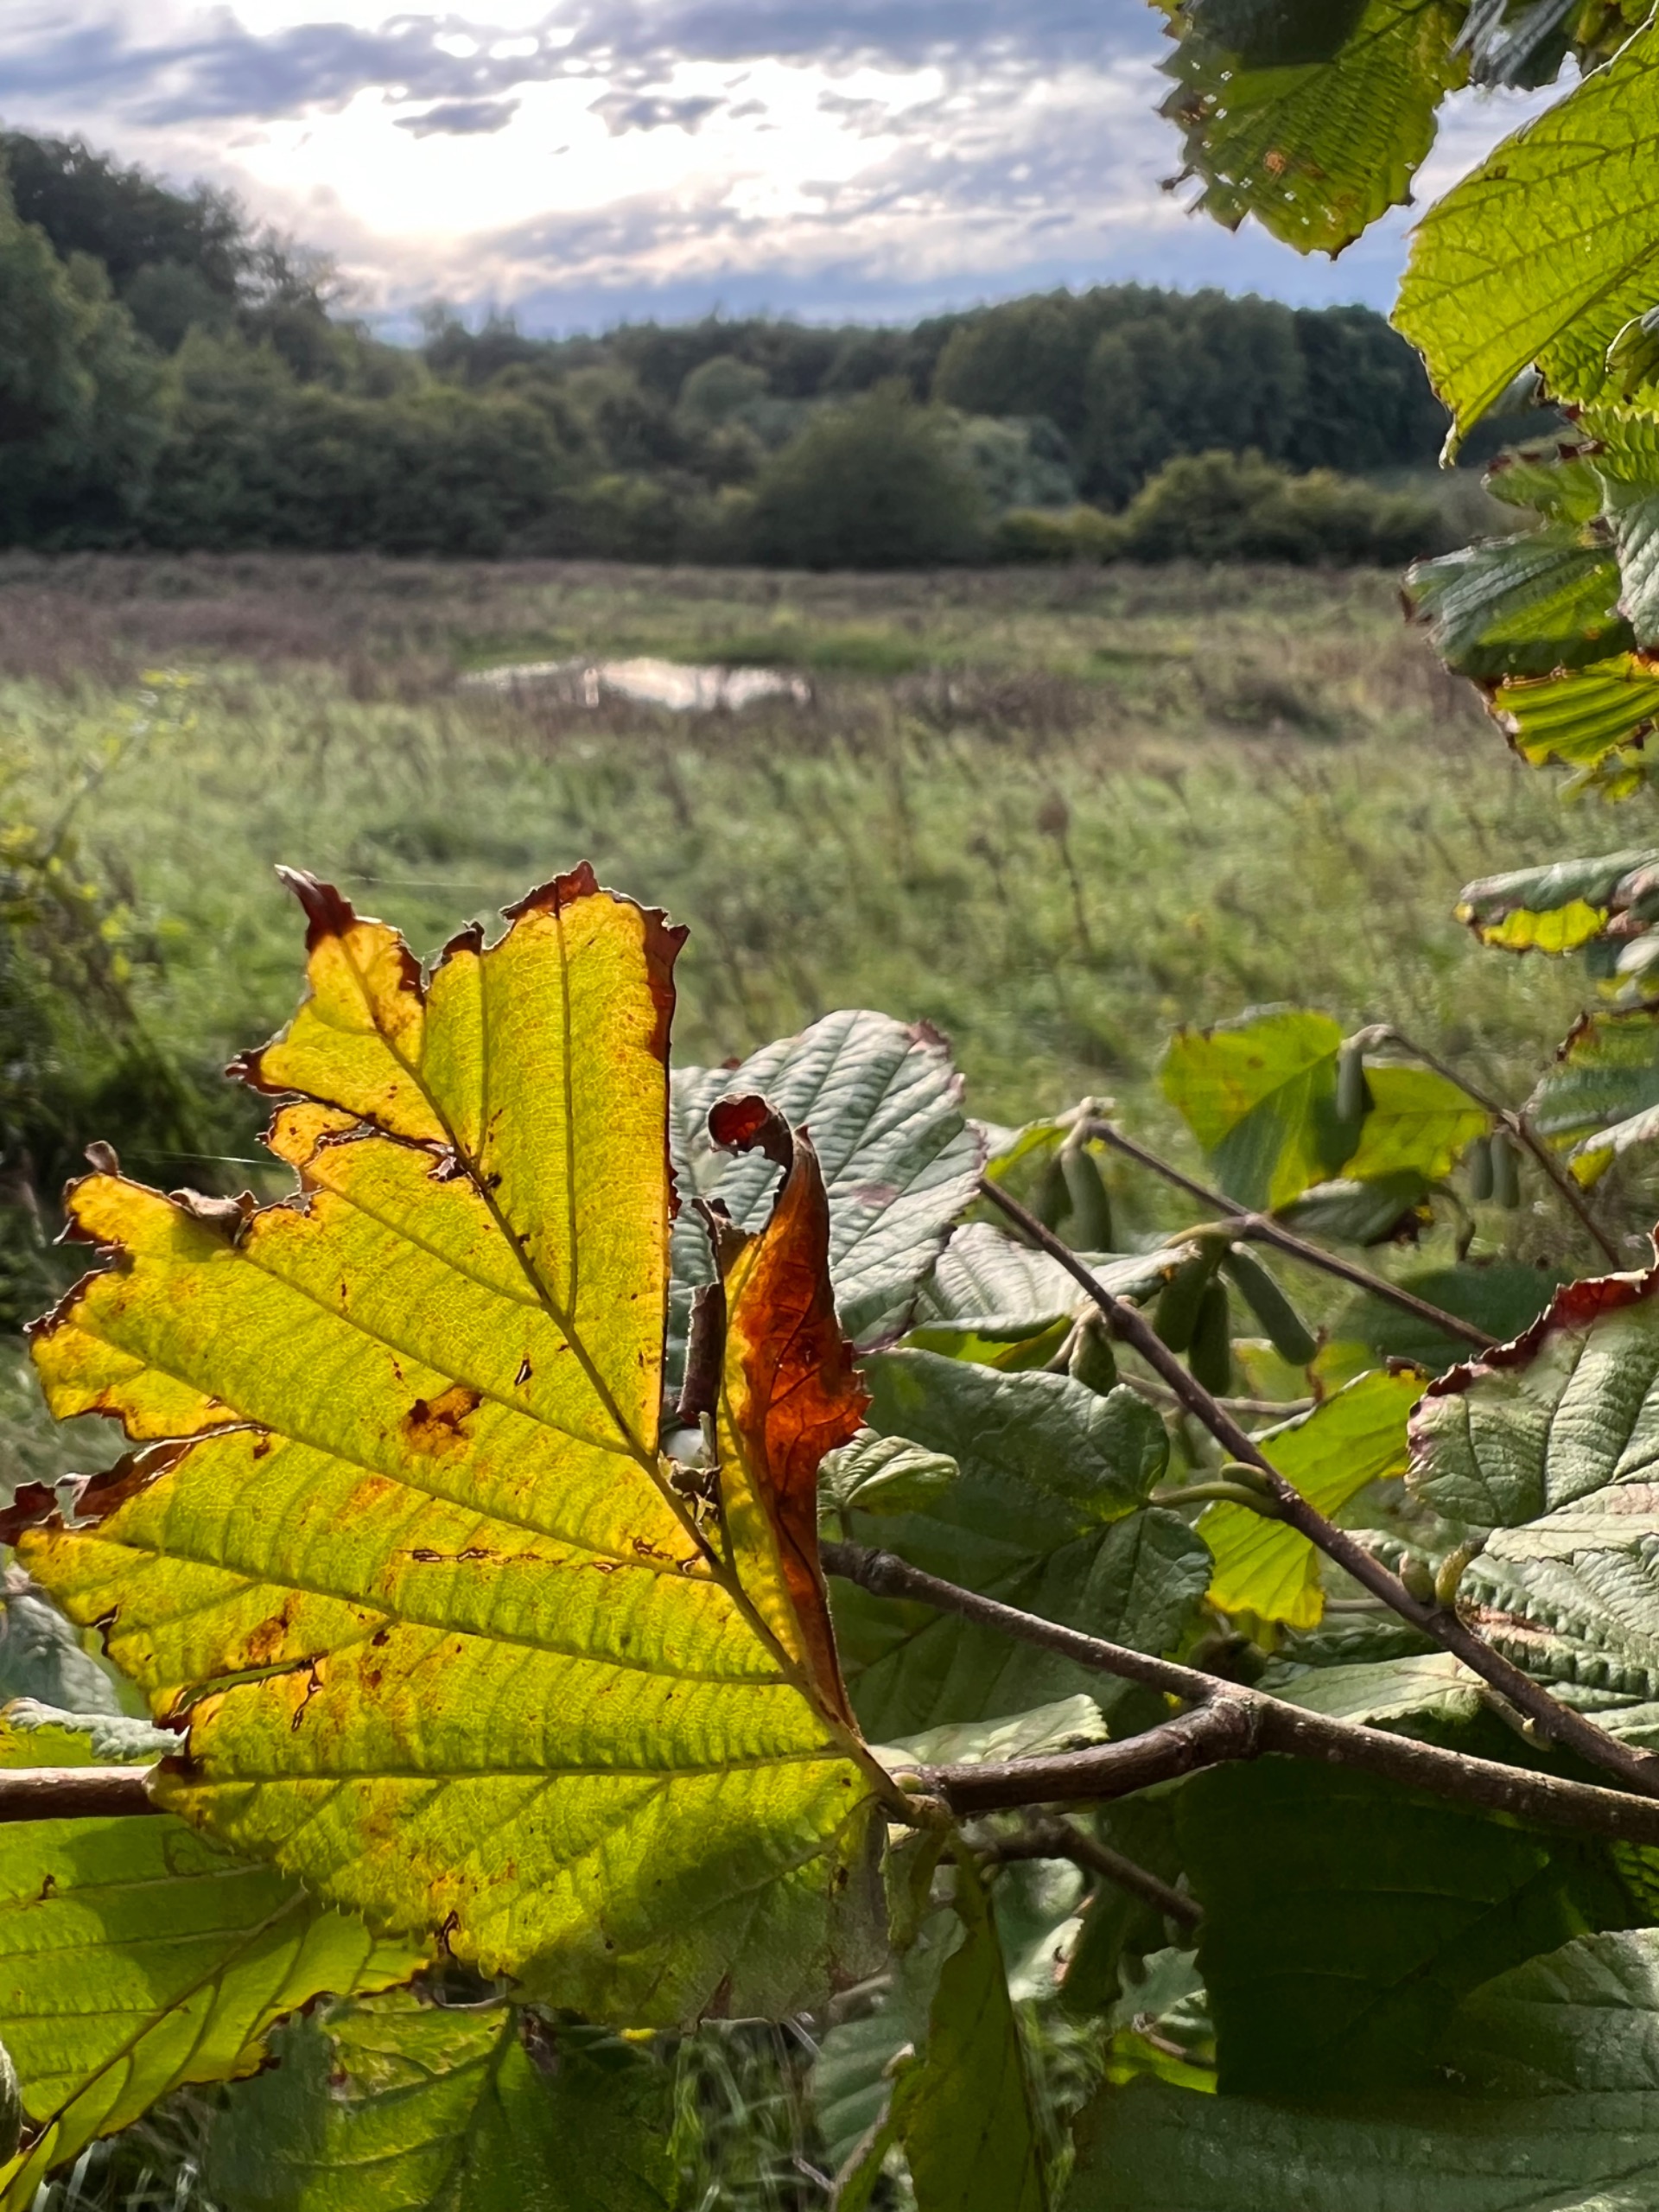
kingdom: Plantae
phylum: Tracheophyta
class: Magnoliopsida
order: Fagales
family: Betulaceae
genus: Corylus
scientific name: Corylus avellana
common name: Hassel
